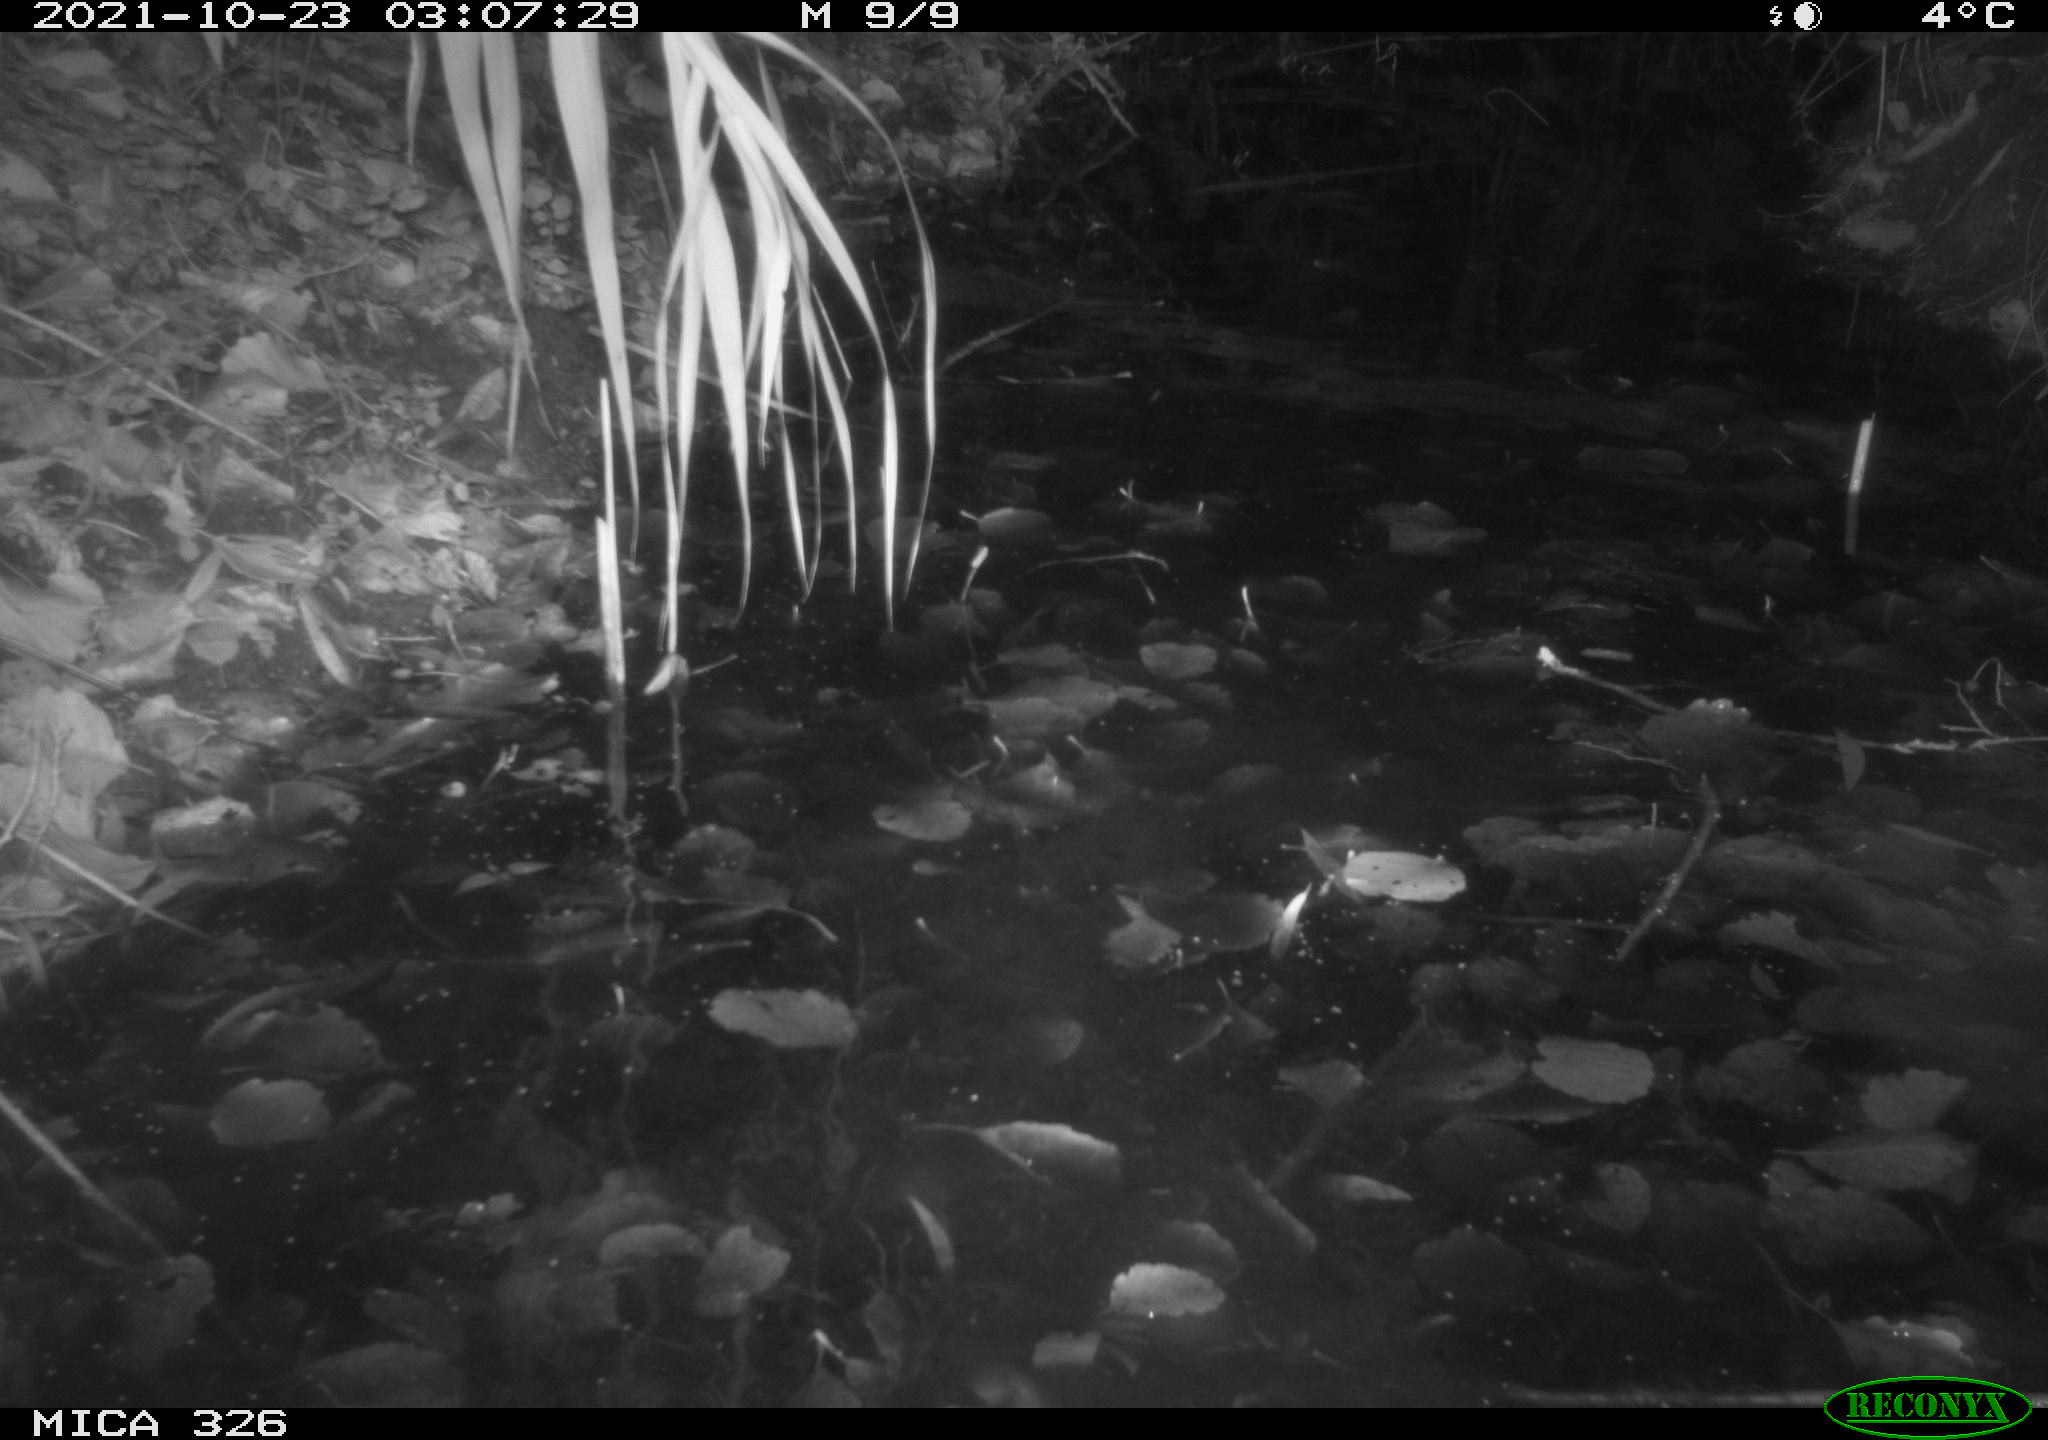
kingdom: Animalia
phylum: Chordata
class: Mammalia
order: Rodentia
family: Myocastoridae
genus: Myocastor
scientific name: Myocastor coypus
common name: Coypu
